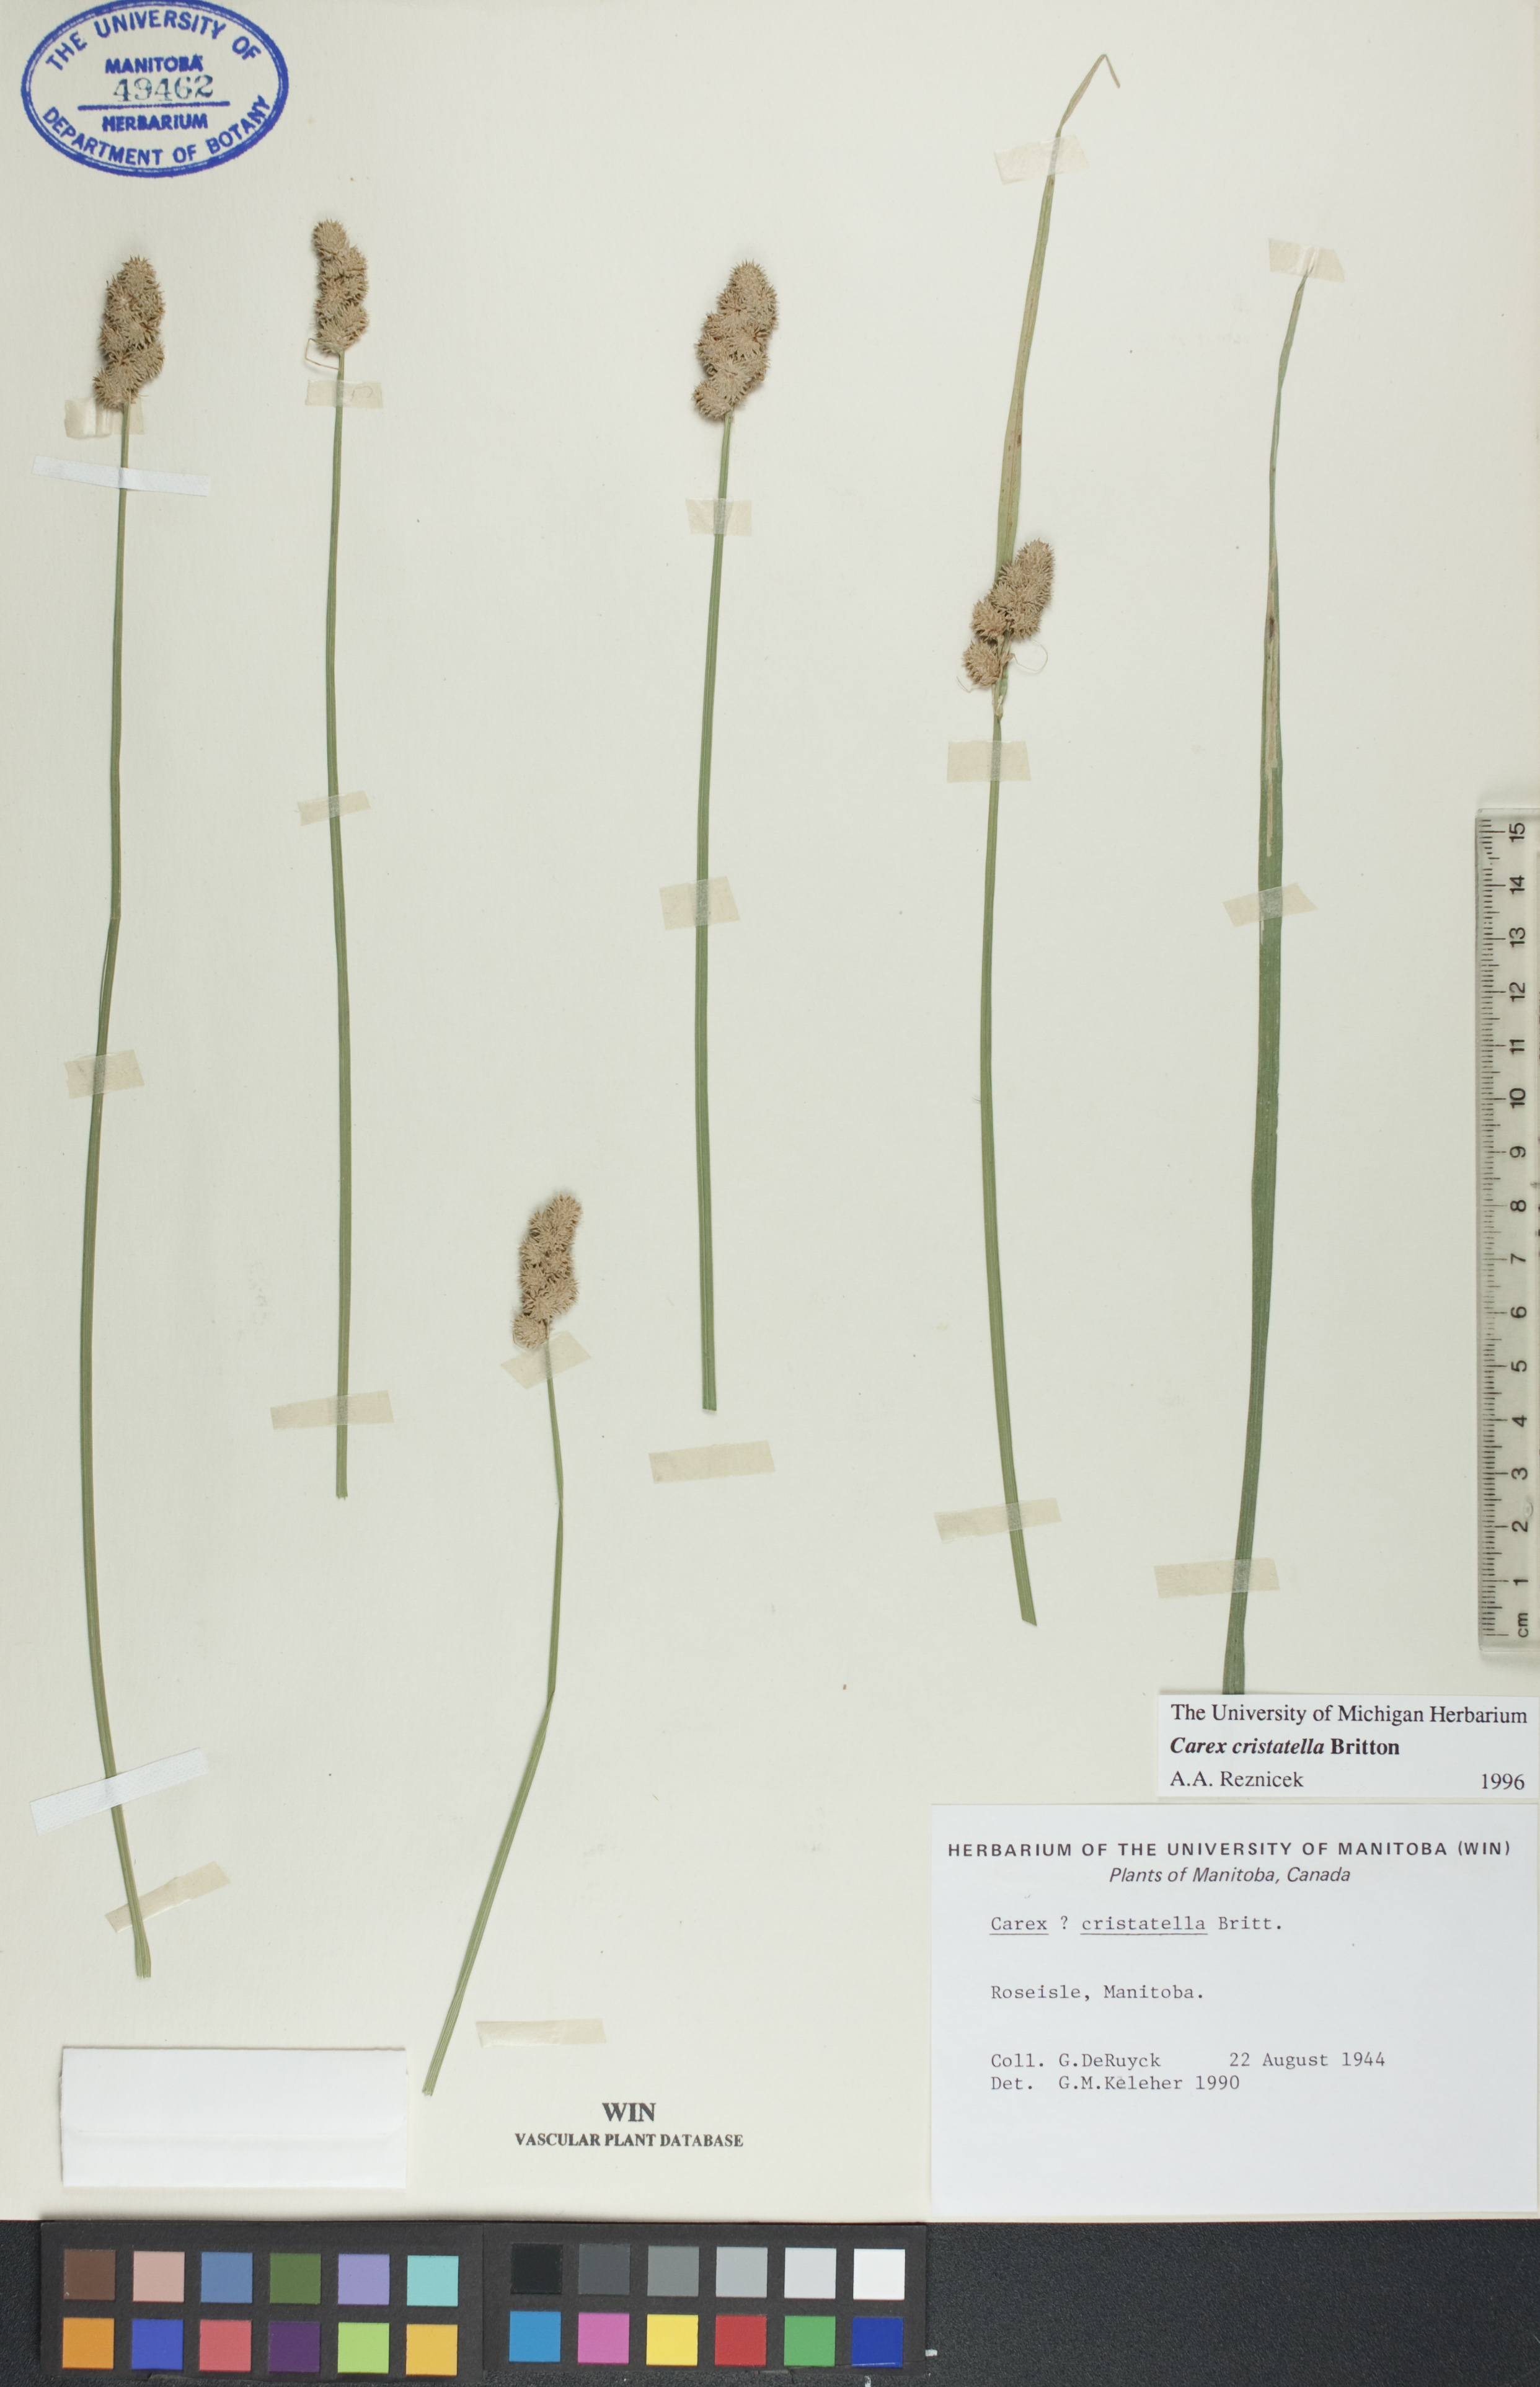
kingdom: Plantae
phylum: Tracheophyta
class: Liliopsida
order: Poales
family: Cyperaceae
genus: Carex
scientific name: Carex cristatella
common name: Crested oval sedge
